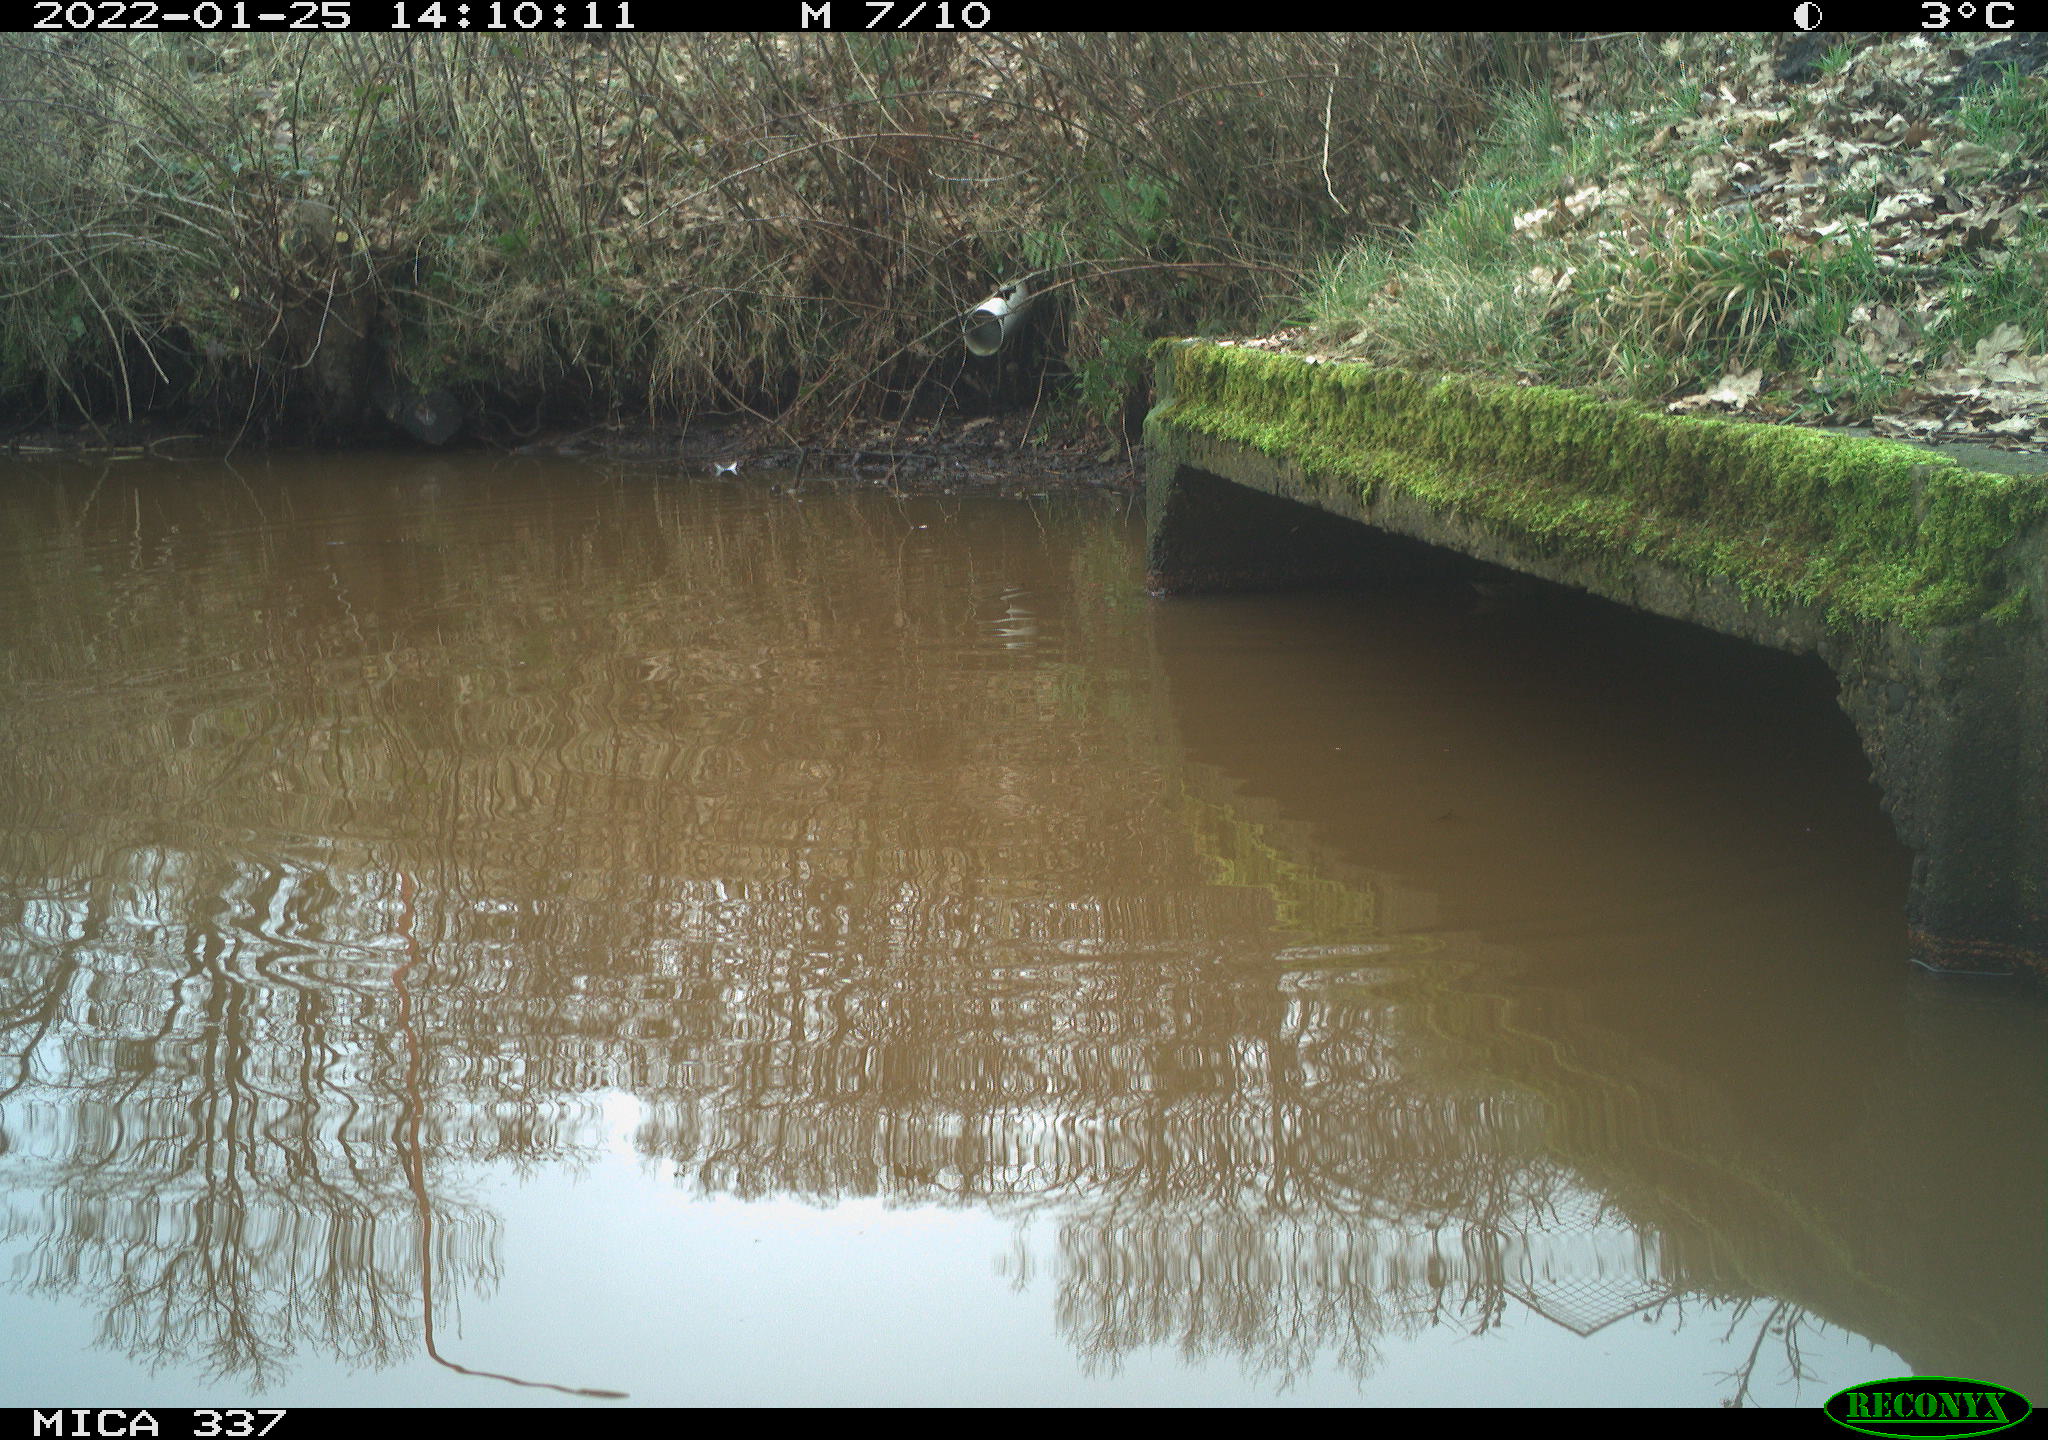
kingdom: Animalia
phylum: Chordata
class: Aves
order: Anseriformes
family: Anatidae
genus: Anas
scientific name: Anas platyrhynchos
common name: Mallard
